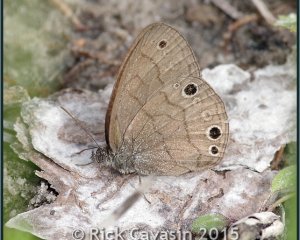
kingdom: Animalia
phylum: Arthropoda
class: Insecta
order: Lepidoptera
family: Nymphalidae
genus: Hermeuptychia
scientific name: Hermeuptychia hermes
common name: Carolina Satyr
